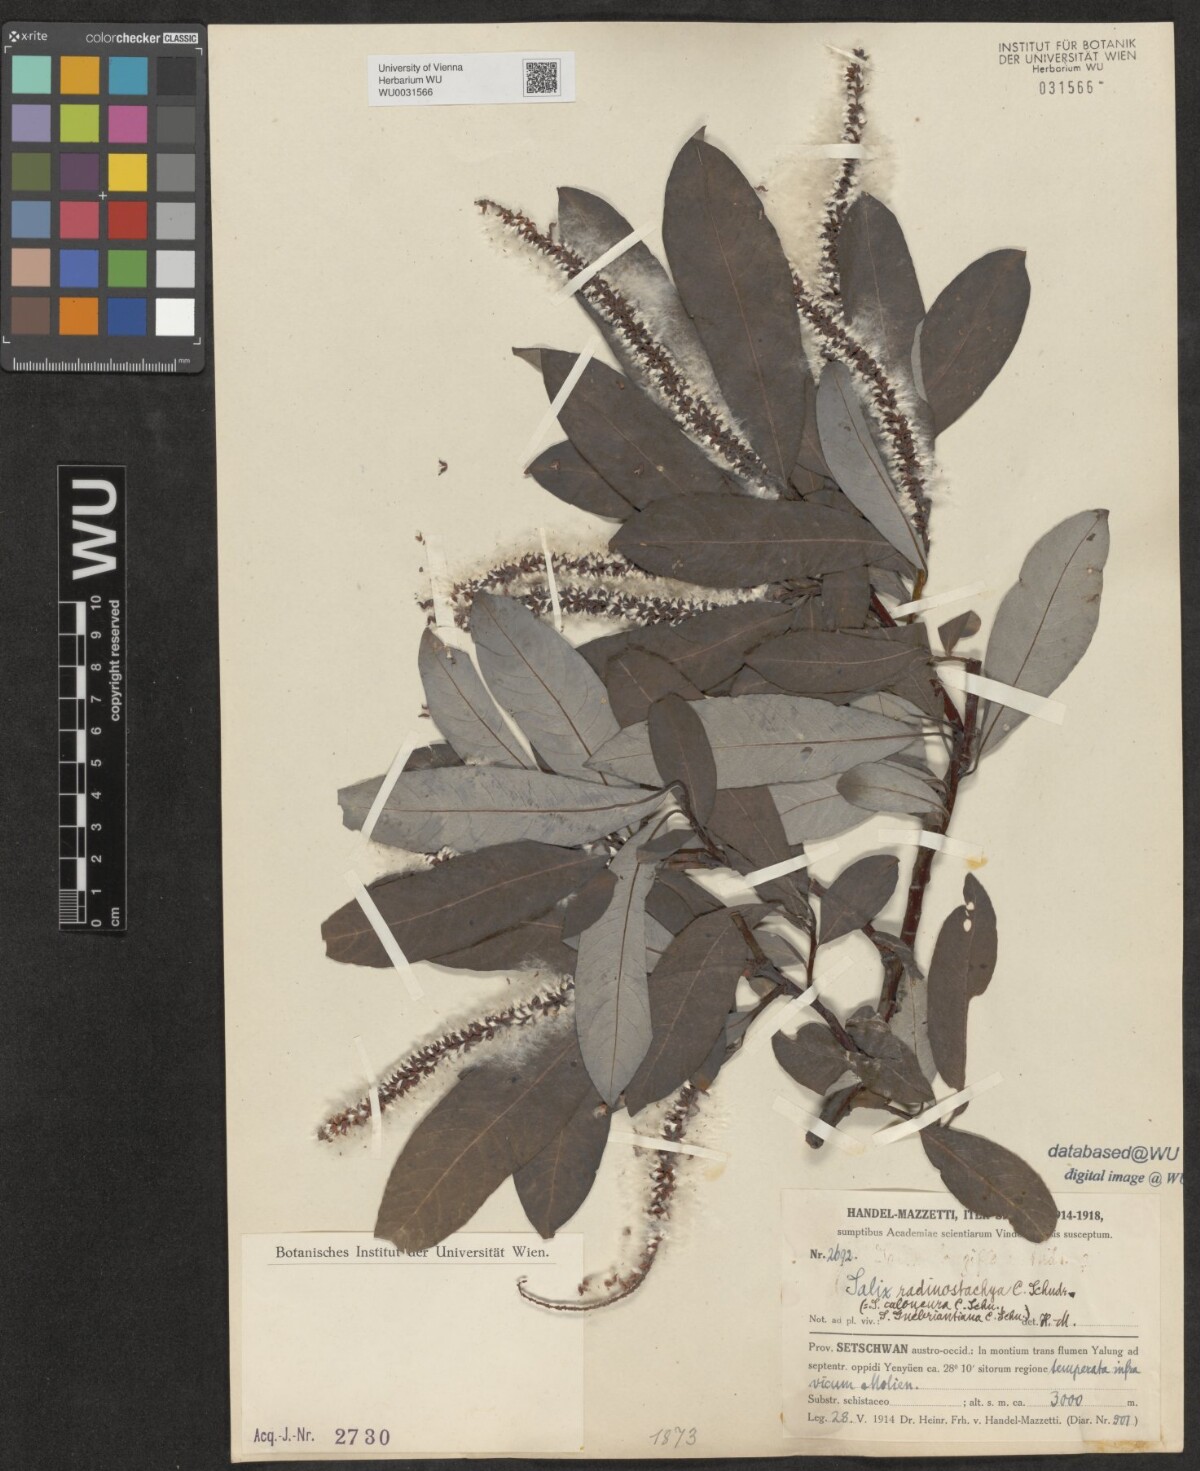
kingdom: Plantae
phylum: Tracheophyta
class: Magnoliopsida
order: Malpighiales
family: Salicaceae
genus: Salix
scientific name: Salix radinostachya
